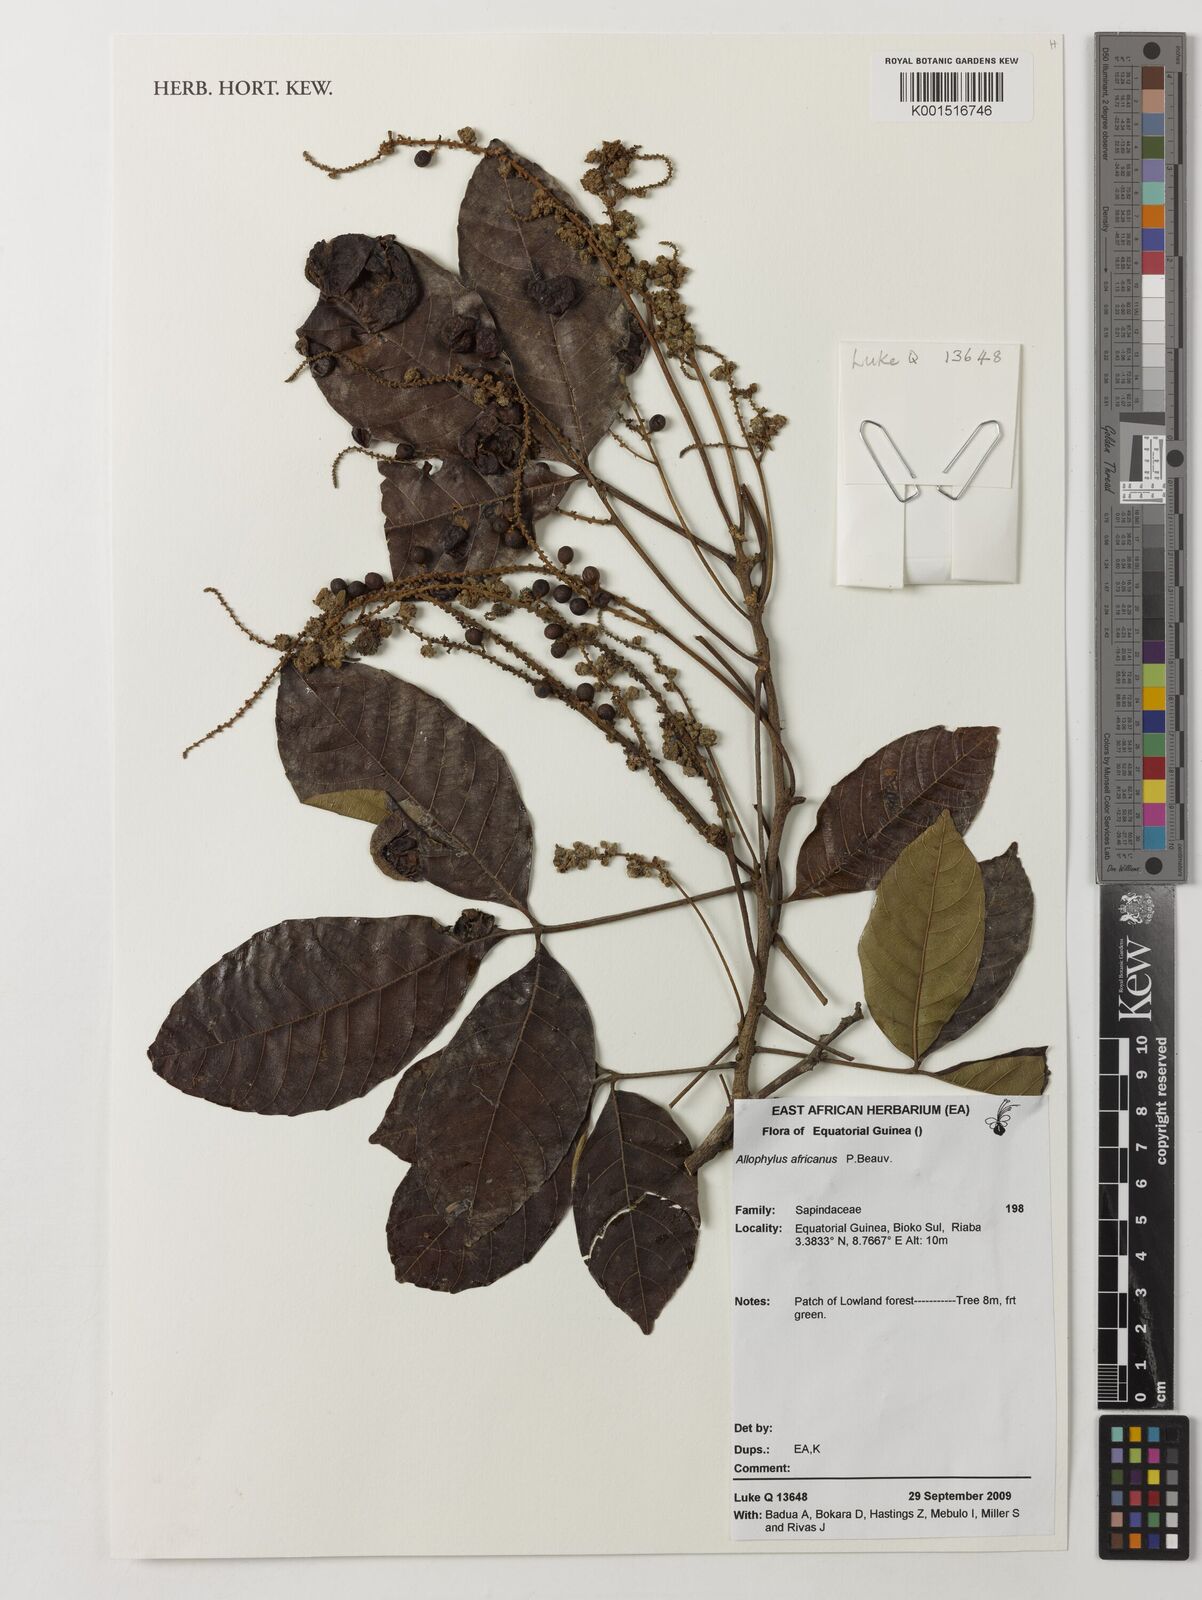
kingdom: Plantae
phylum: Tracheophyta
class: Magnoliopsida
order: Sapindales
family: Sapindaceae
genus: Allophylus
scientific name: Allophylus africanus
